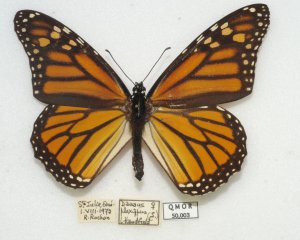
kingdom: Animalia
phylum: Arthropoda
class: Insecta
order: Lepidoptera
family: Nymphalidae
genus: Danaus
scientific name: Danaus plexippus
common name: Monarch
